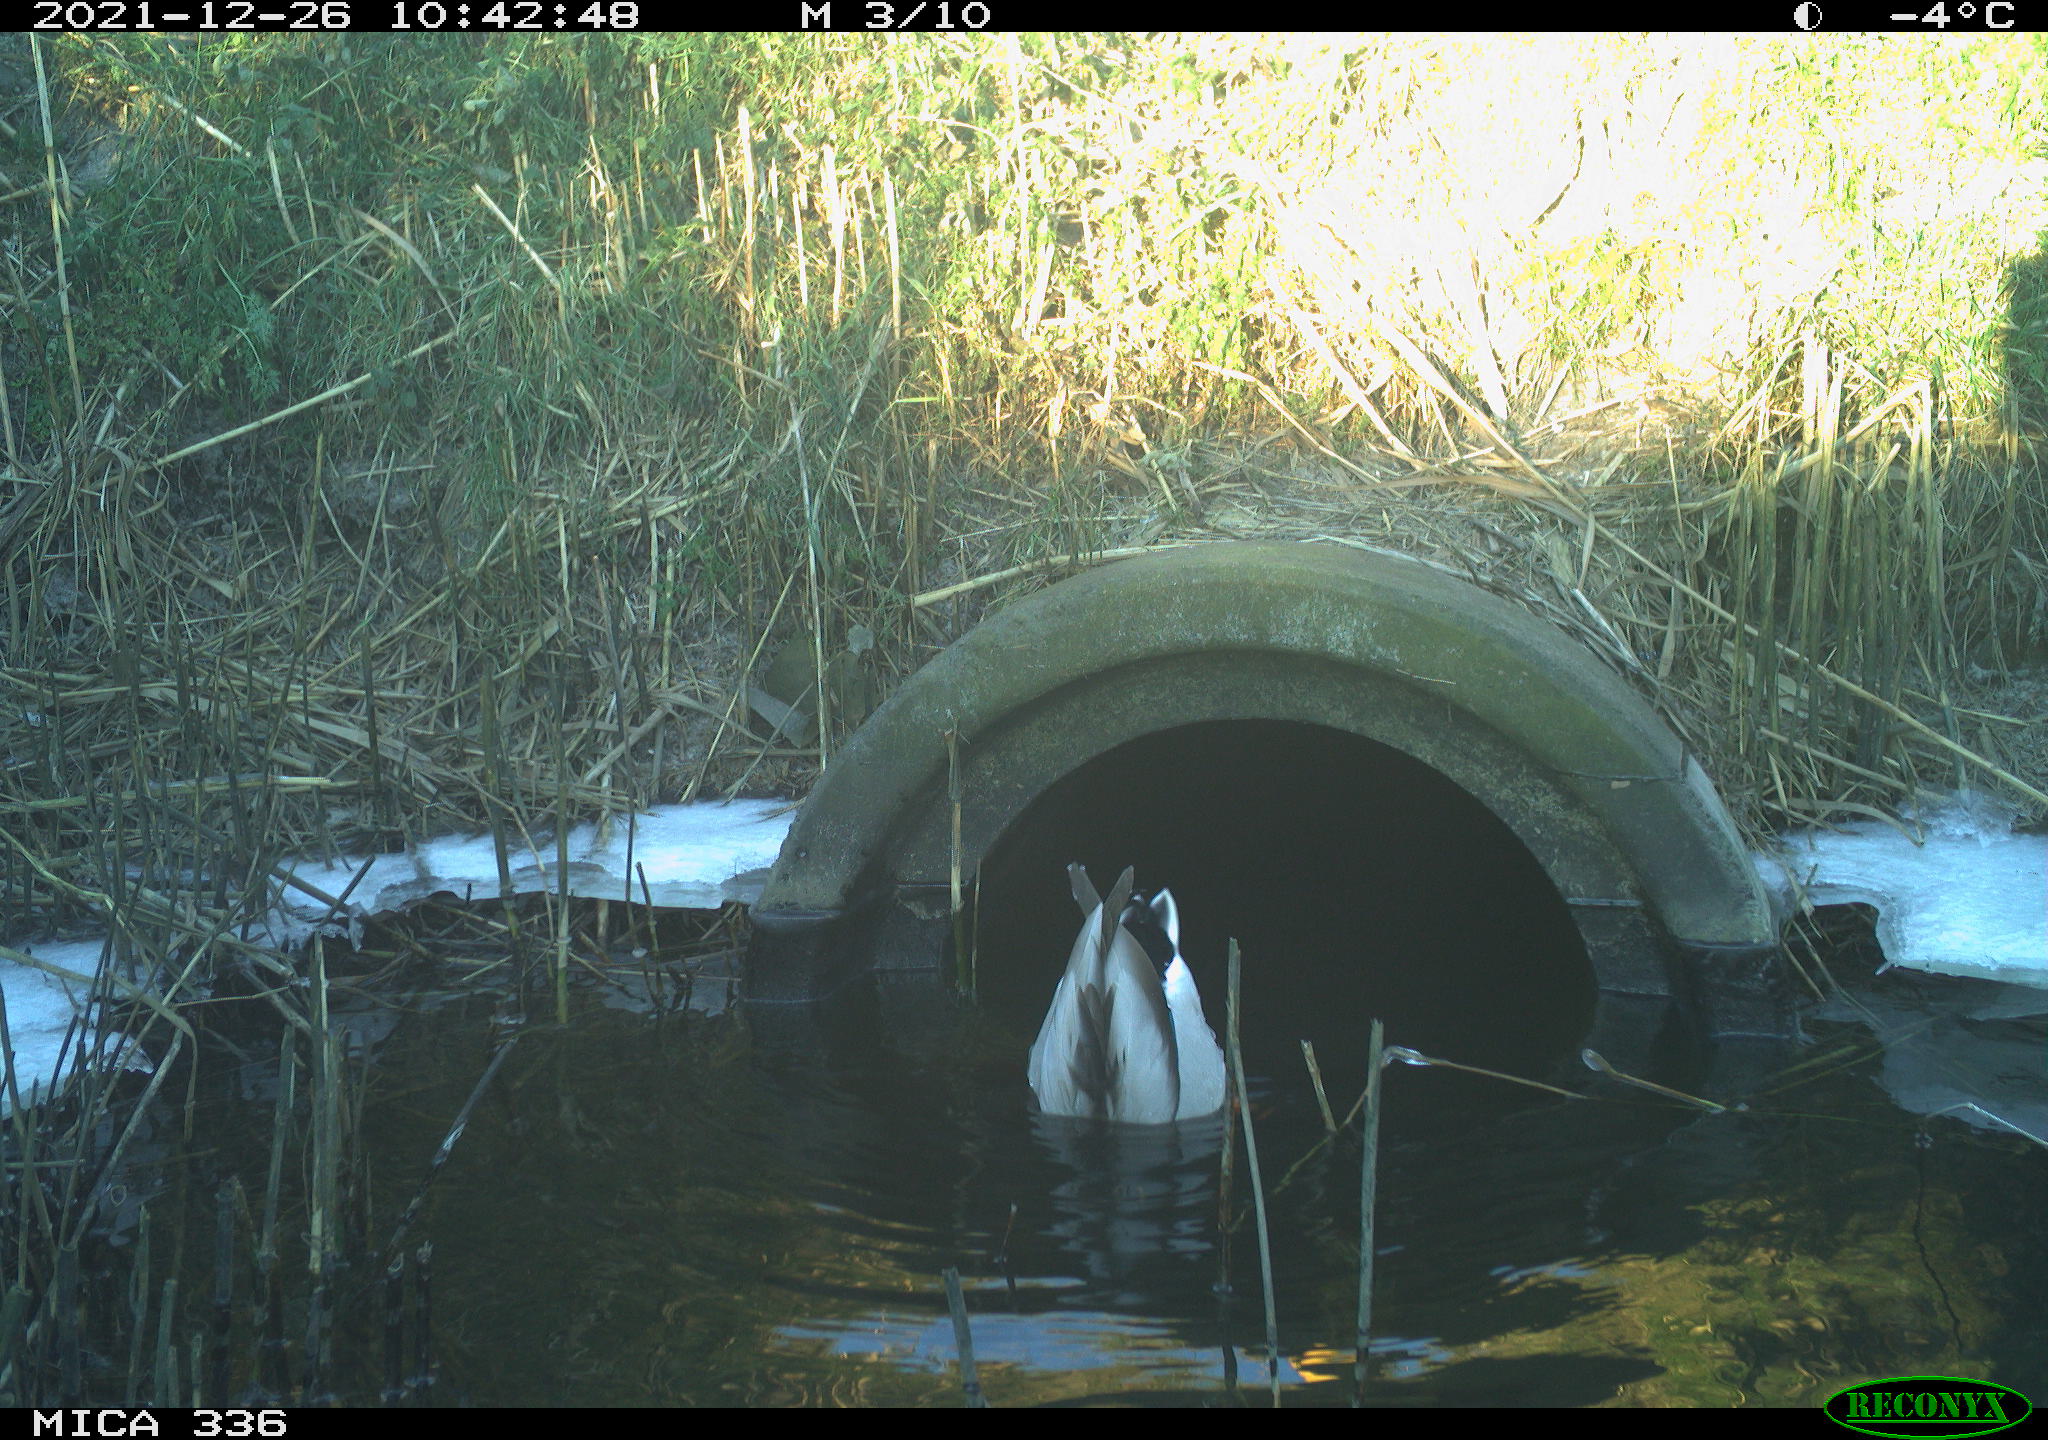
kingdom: Animalia
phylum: Chordata
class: Aves
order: Anseriformes
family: Anatidae
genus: Anas
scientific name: Anas platyrhynchos
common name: Mallard
